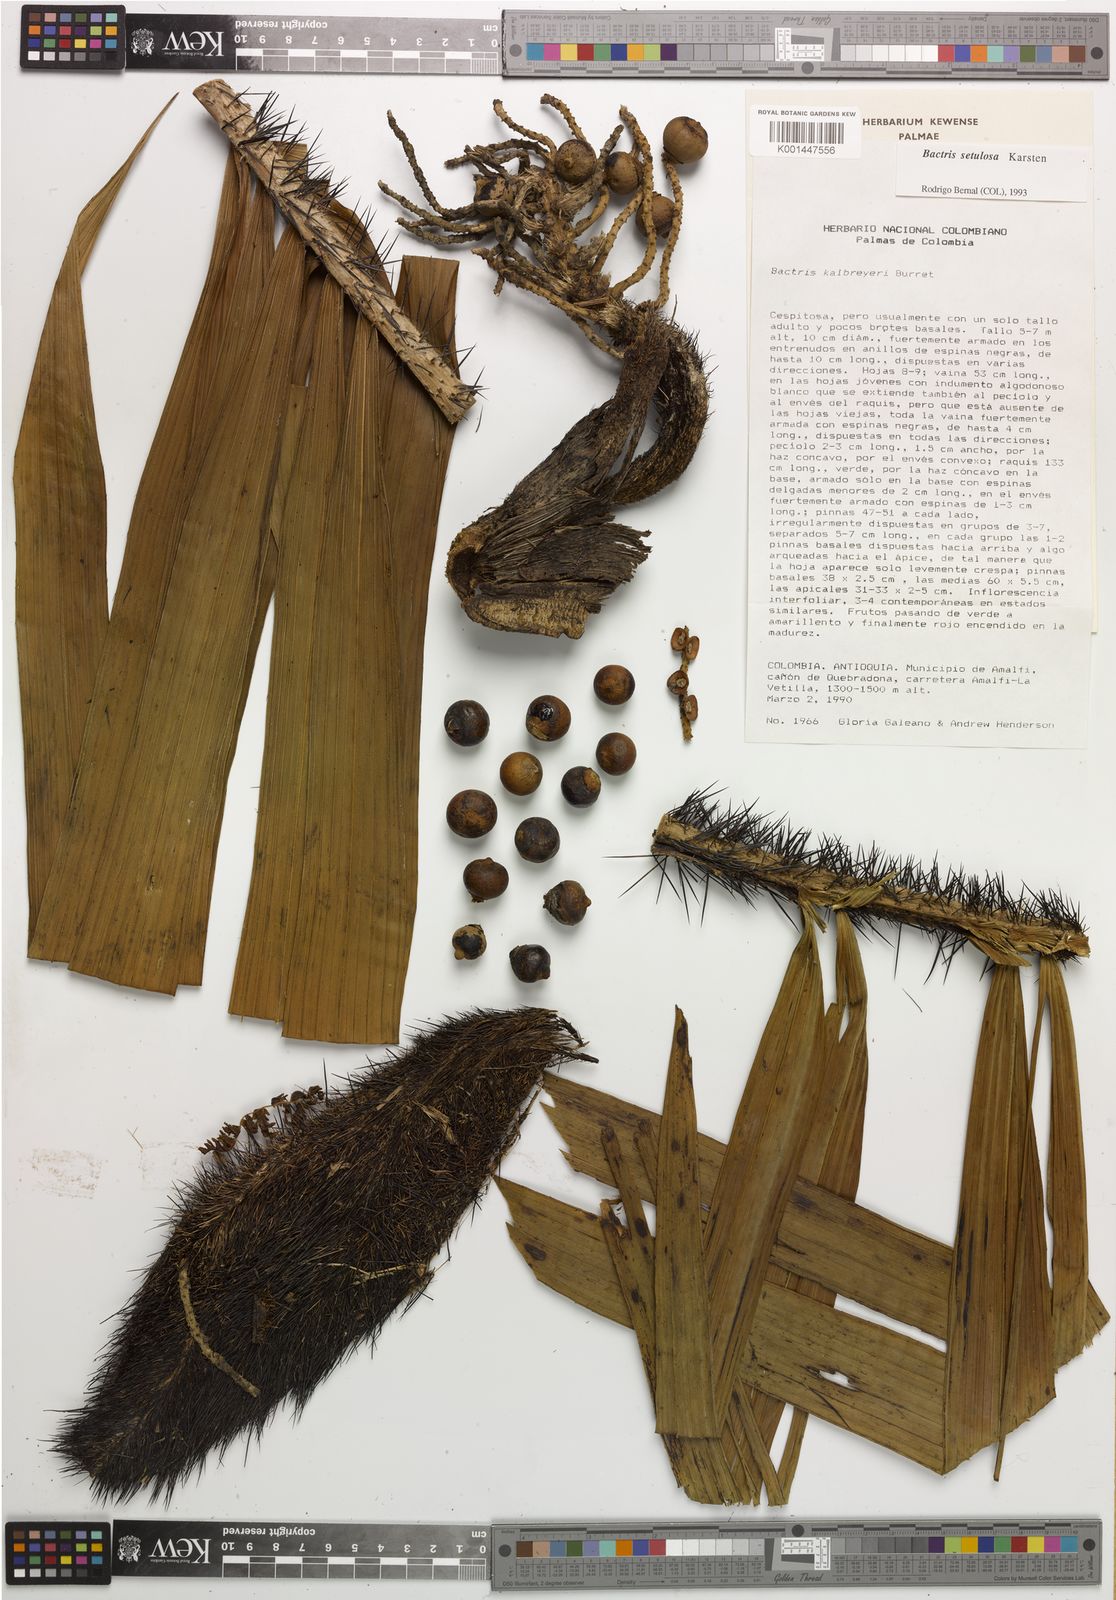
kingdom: Plantae
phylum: Tracheophyta
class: Liliopsida
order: Arecales
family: Arecaceae
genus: Bactris
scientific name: Bactris setulosa
